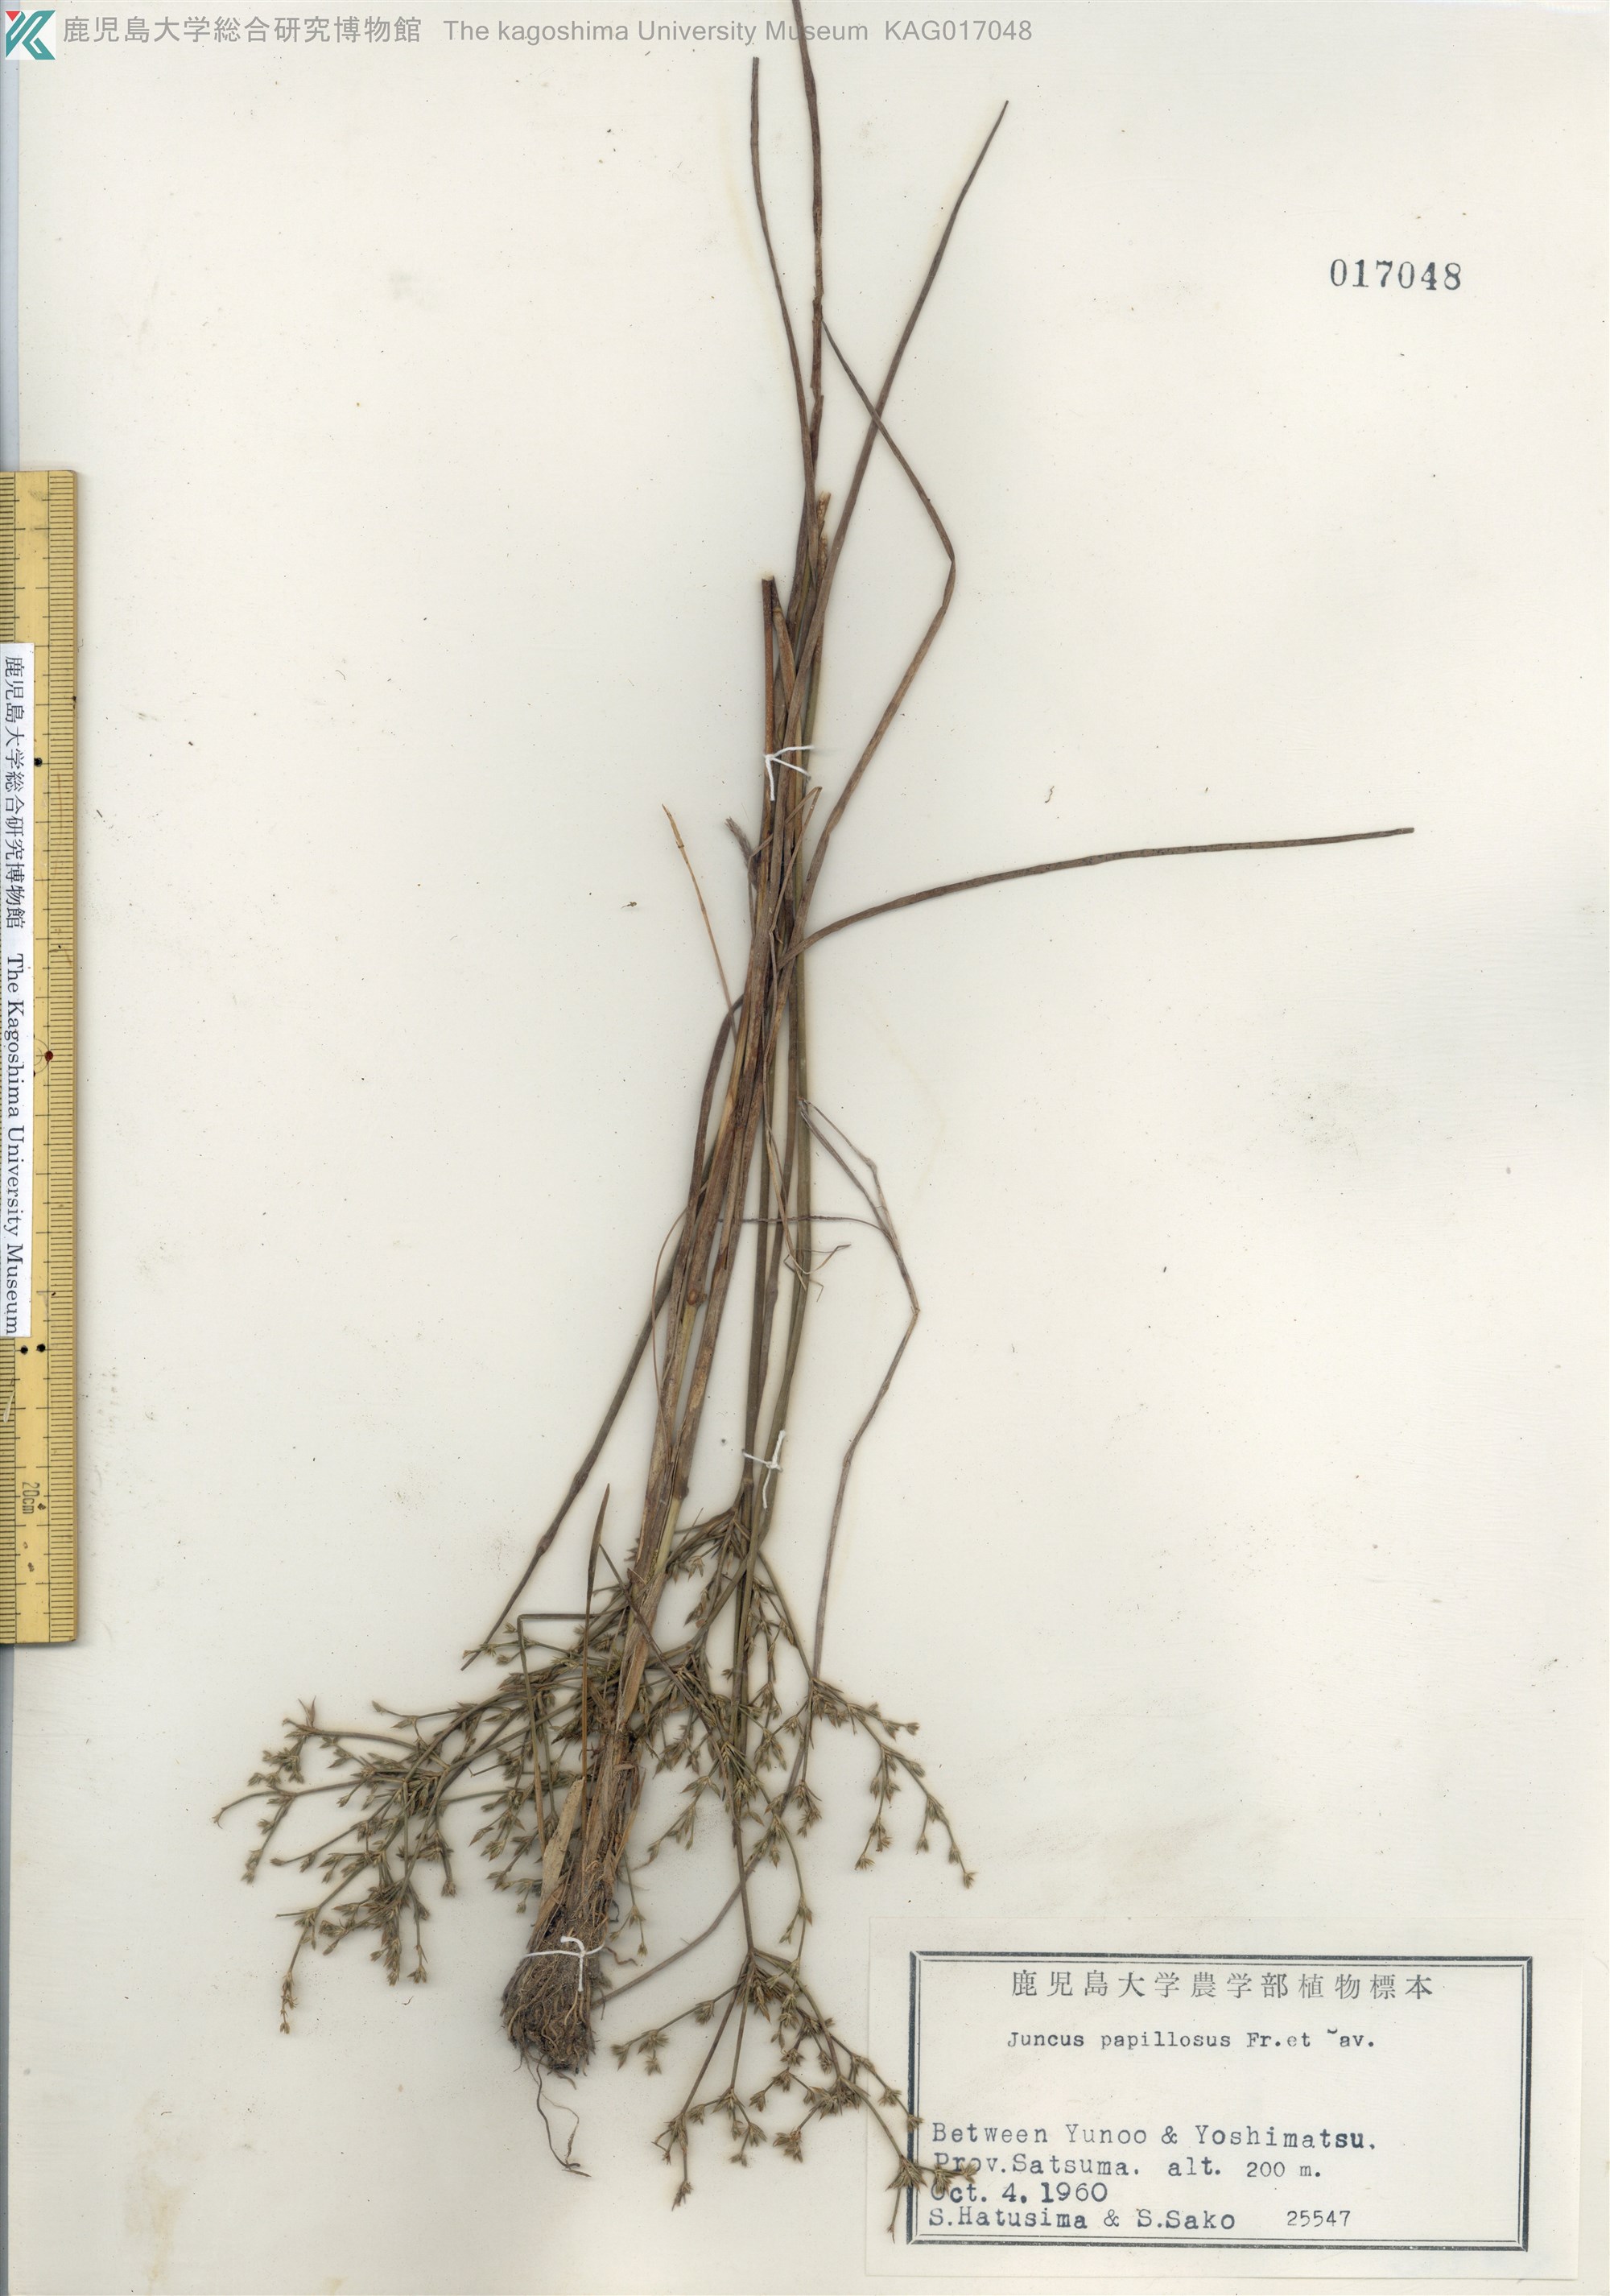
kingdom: Plantae
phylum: Tracheophyta
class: Liliopsida
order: Poales
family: Juncaceae
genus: Juncus
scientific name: Juncus papillosus
